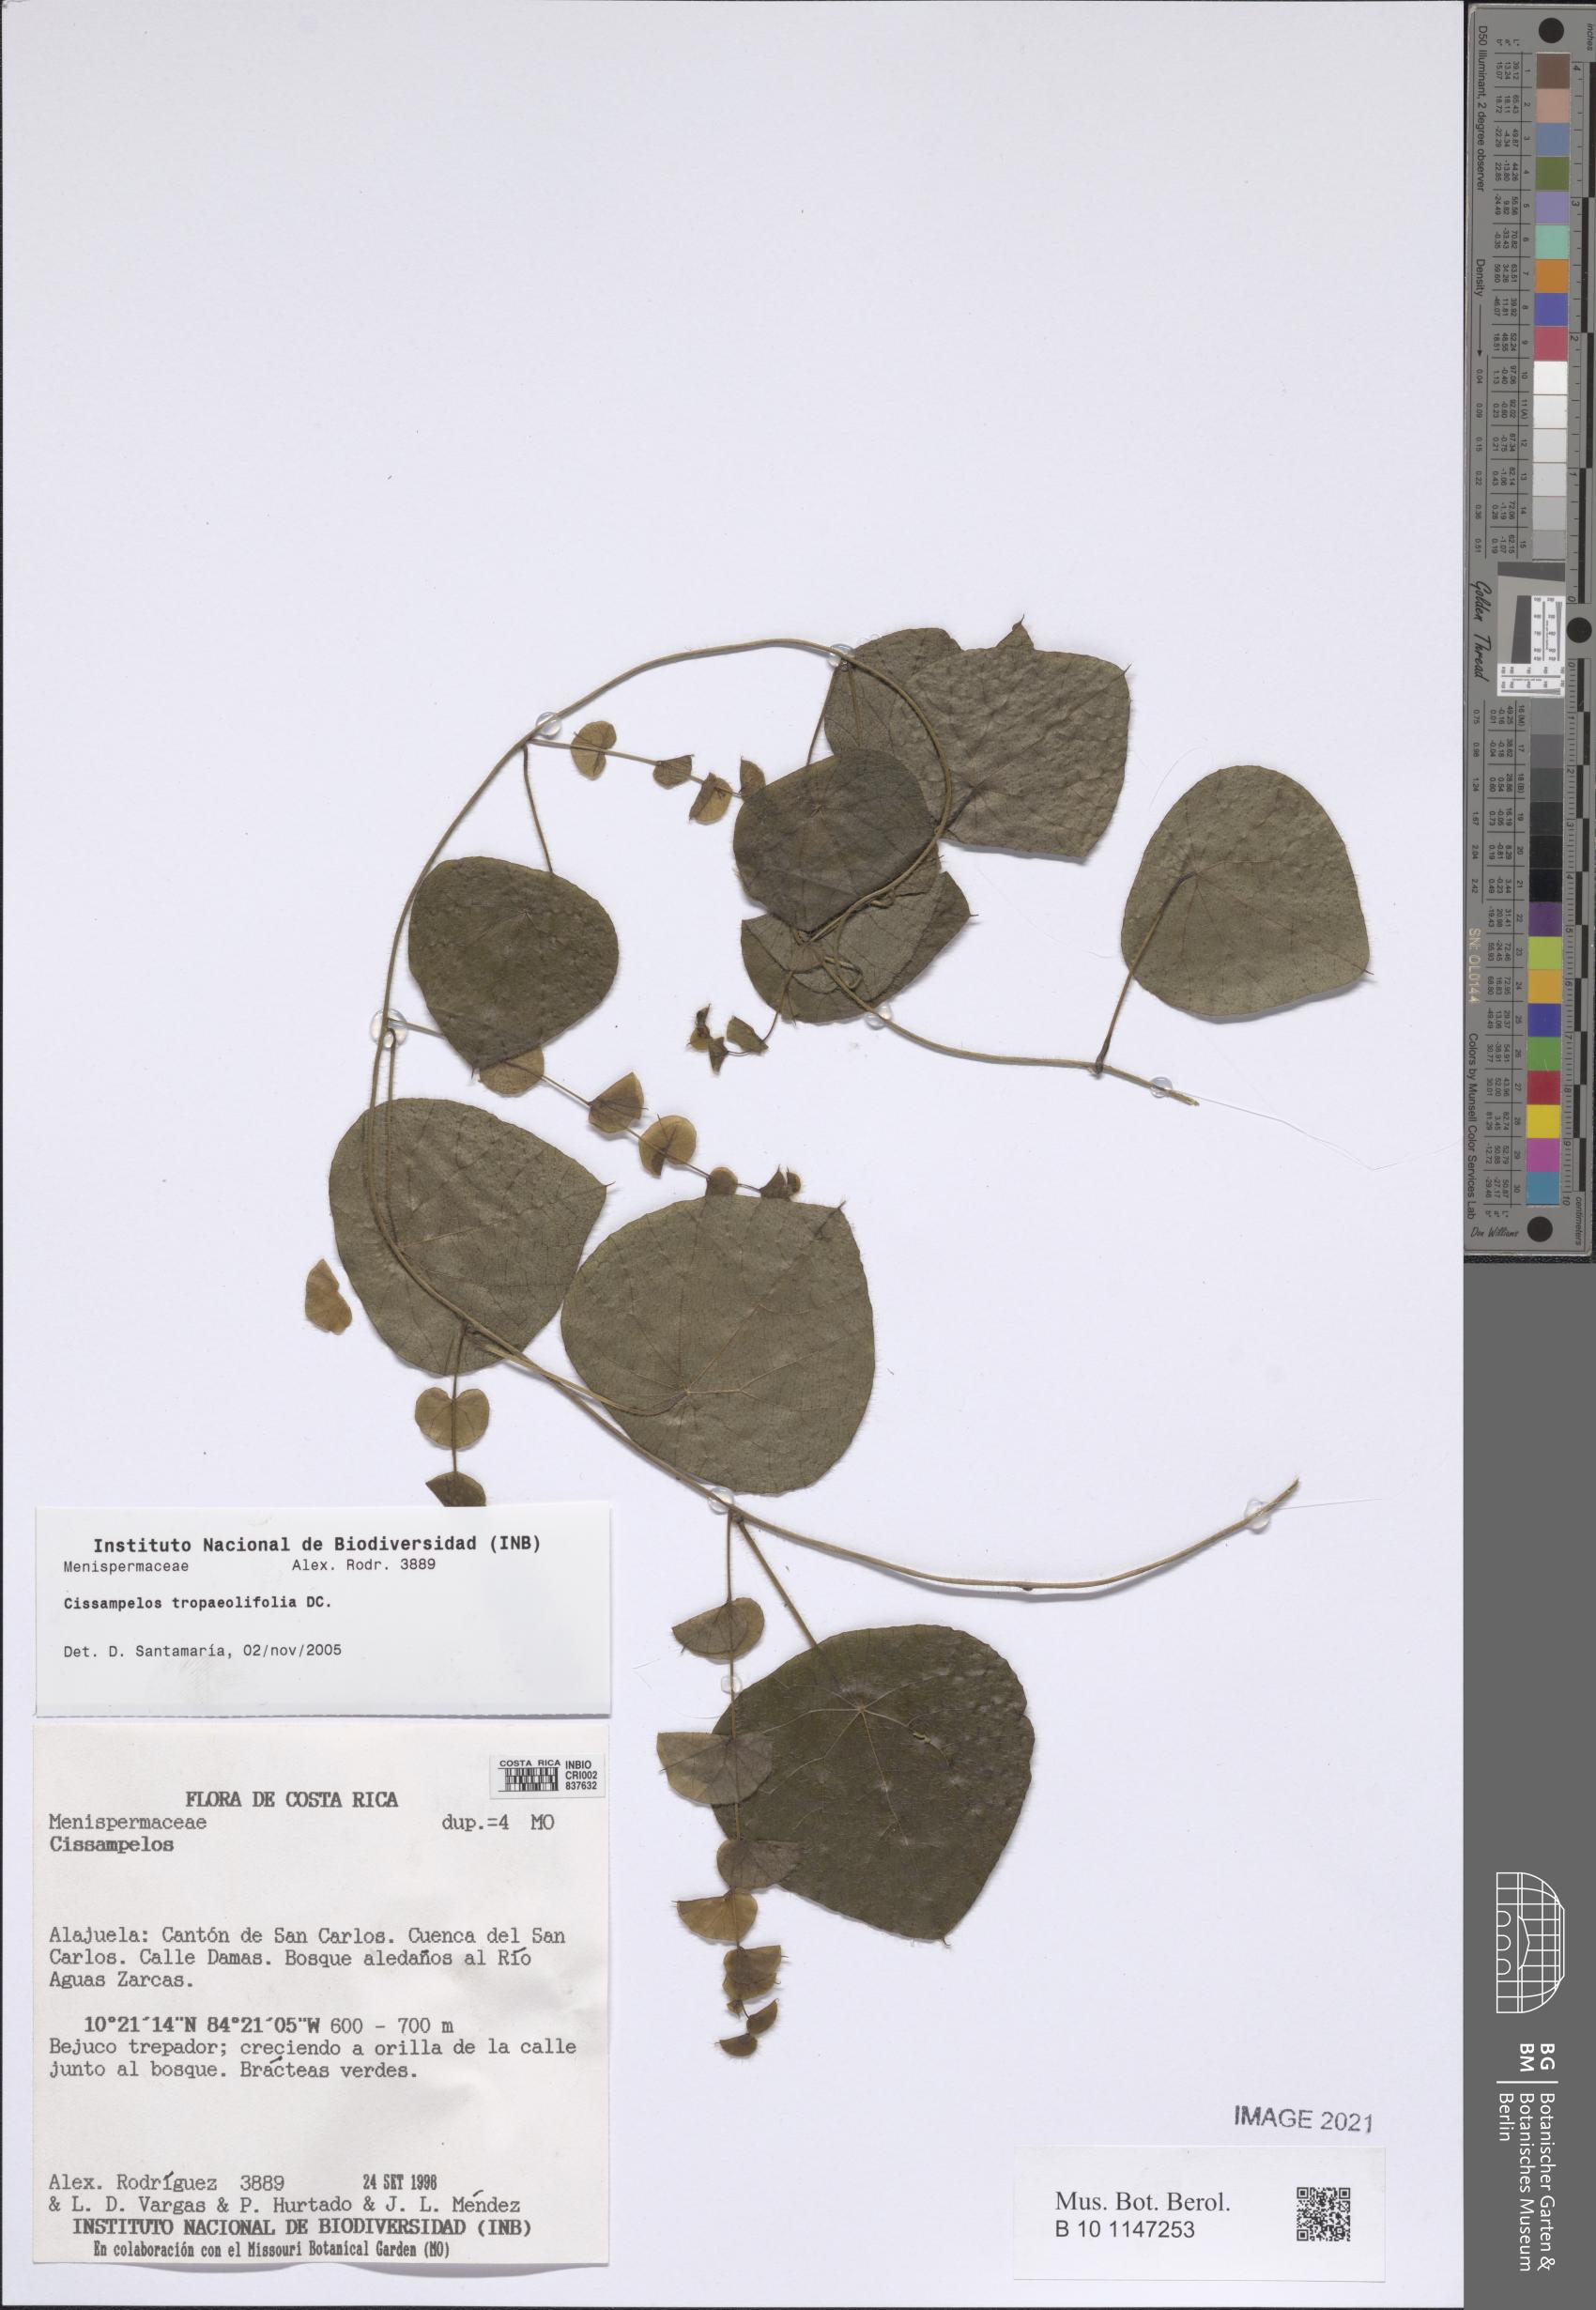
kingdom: Plantae
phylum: Tracheophyta
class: Magnoliopsida
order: Ranunculales
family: Menispermaceae
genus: Cissampelos
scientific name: Cissampelos tropaeolifolia
